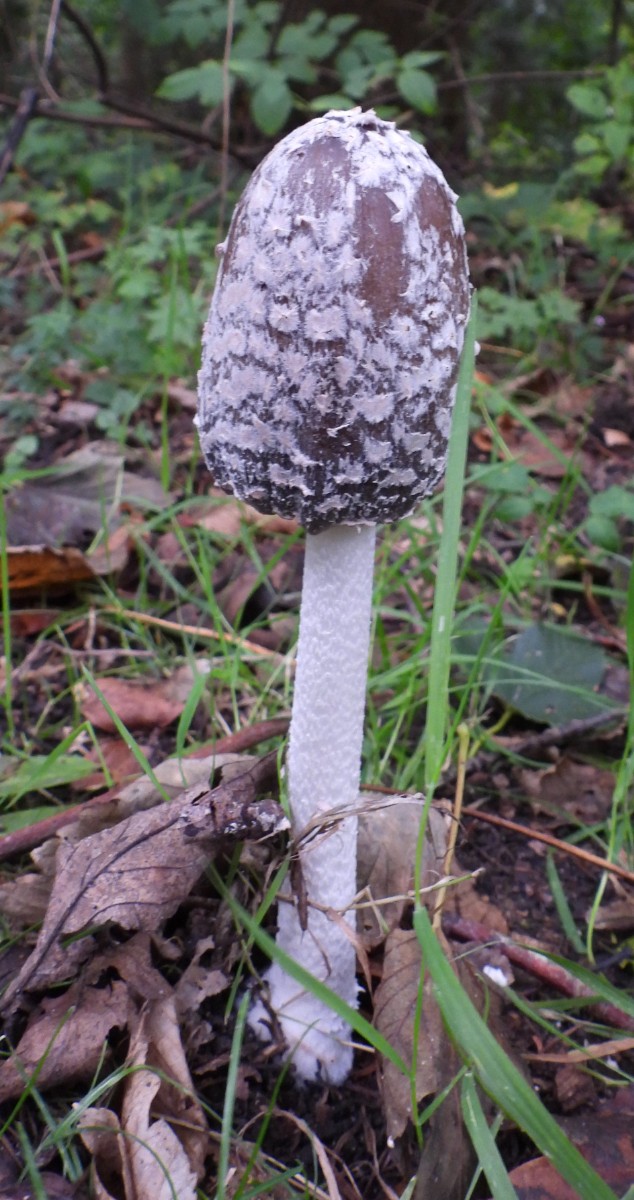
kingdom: Fungi
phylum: Basidiomycota
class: Agaricomycetes
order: Agaricales
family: Psathyrellaceae
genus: Coprinopsis
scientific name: Coprinopsis picacea
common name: skade-blækhat
